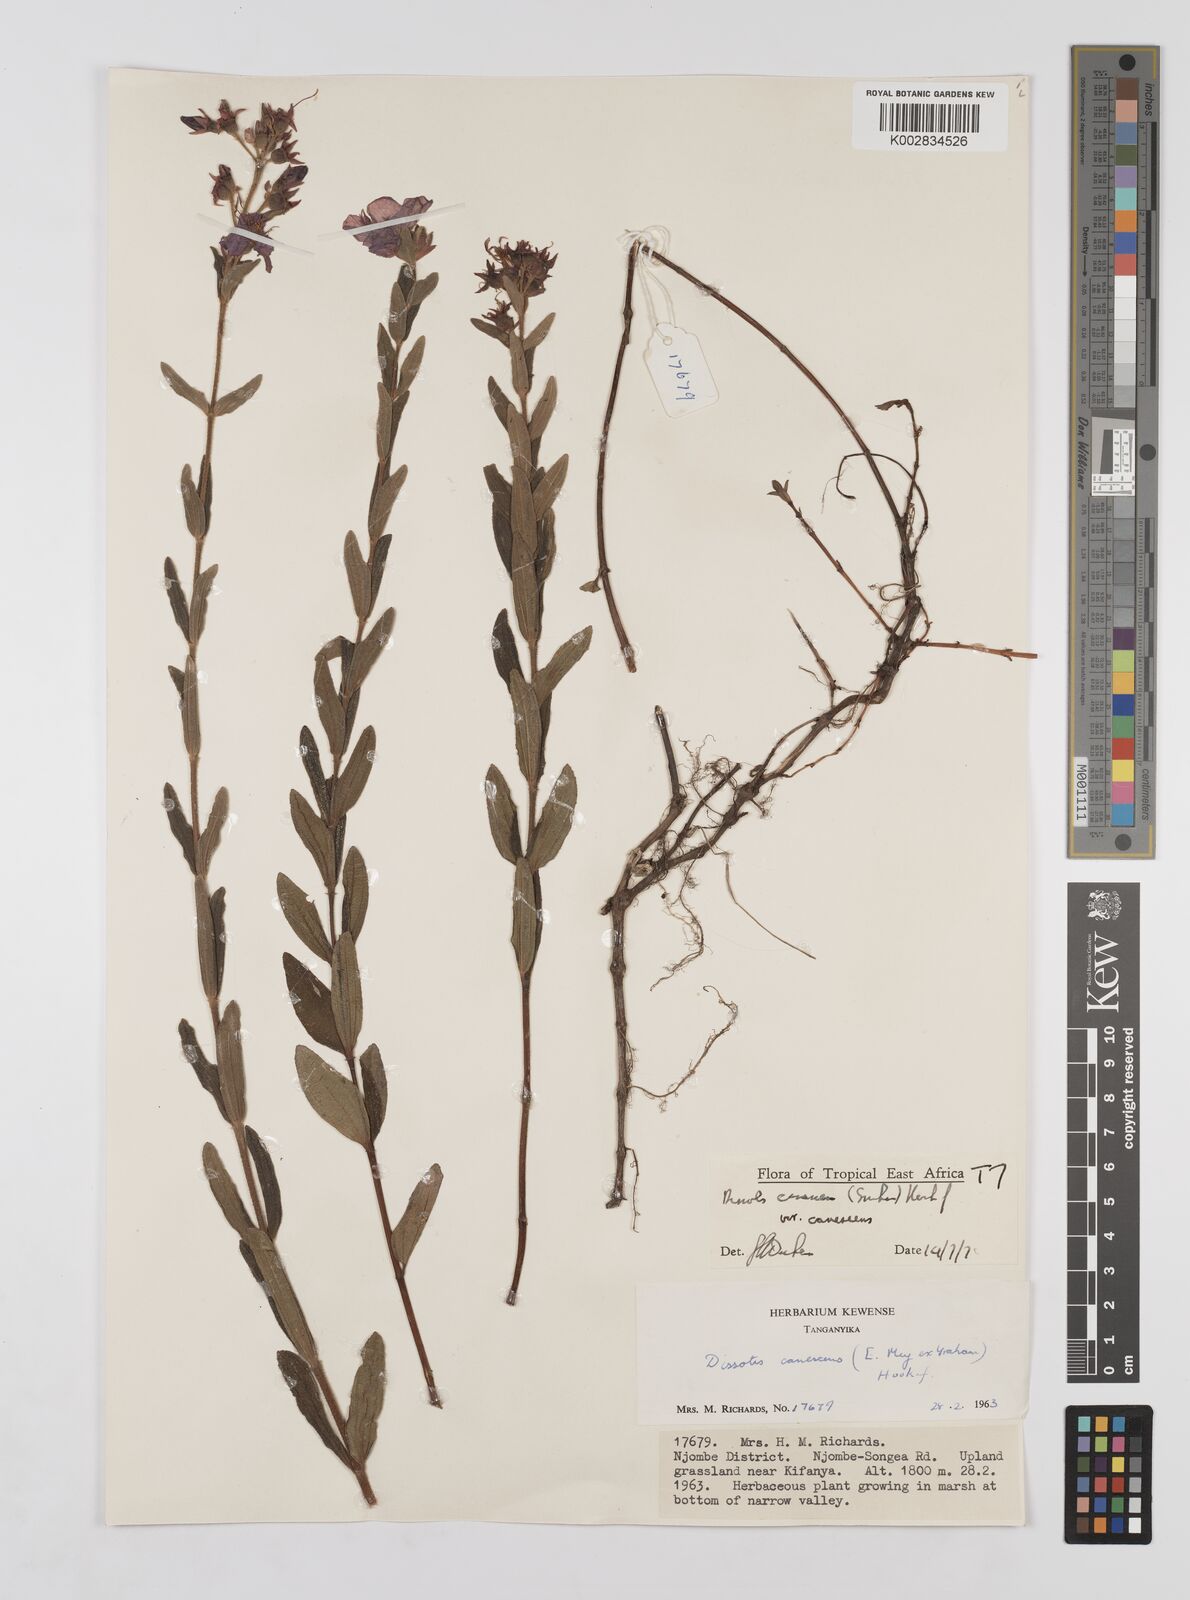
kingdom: Plantae
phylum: Tracheophyta
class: Magnoliopsida
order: Myrtales
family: Melastomataceae
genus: Argyrella
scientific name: Argyrella canescens
